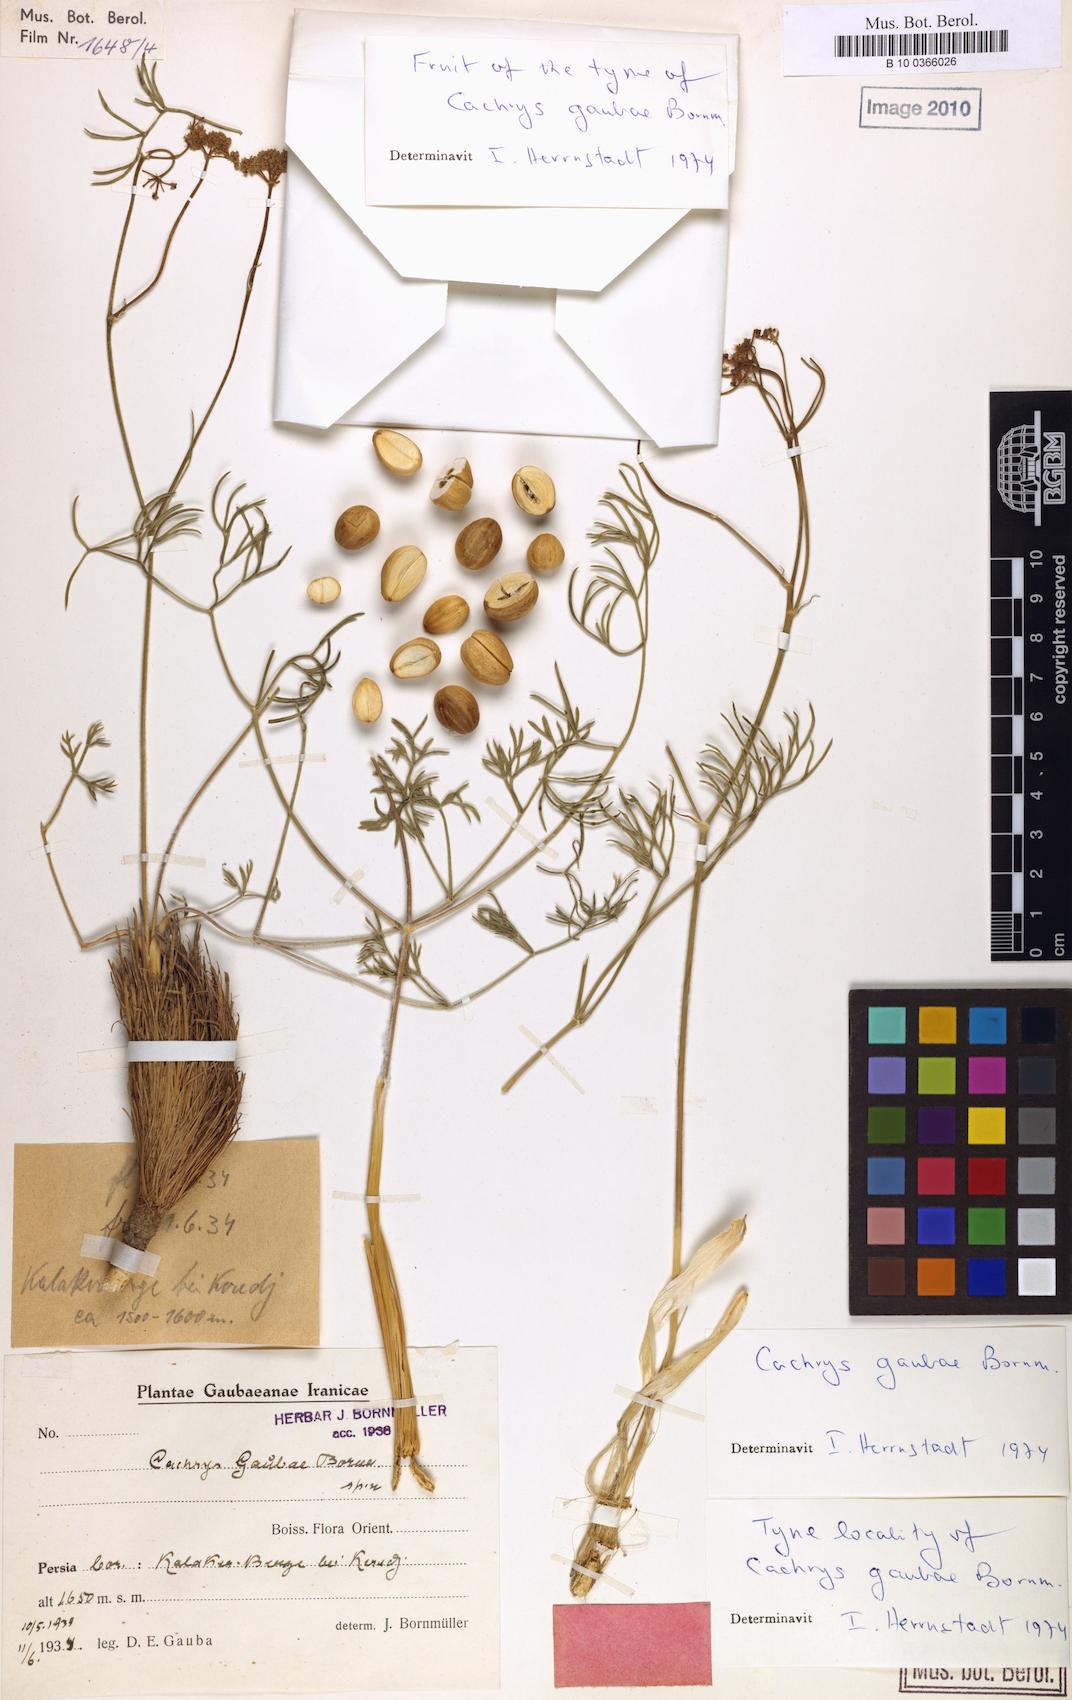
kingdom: Plantae
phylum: Tracheophyta
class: Magnoliopsida
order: Apiales
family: Apiaceae
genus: Prangos
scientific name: Prangos gaubae
